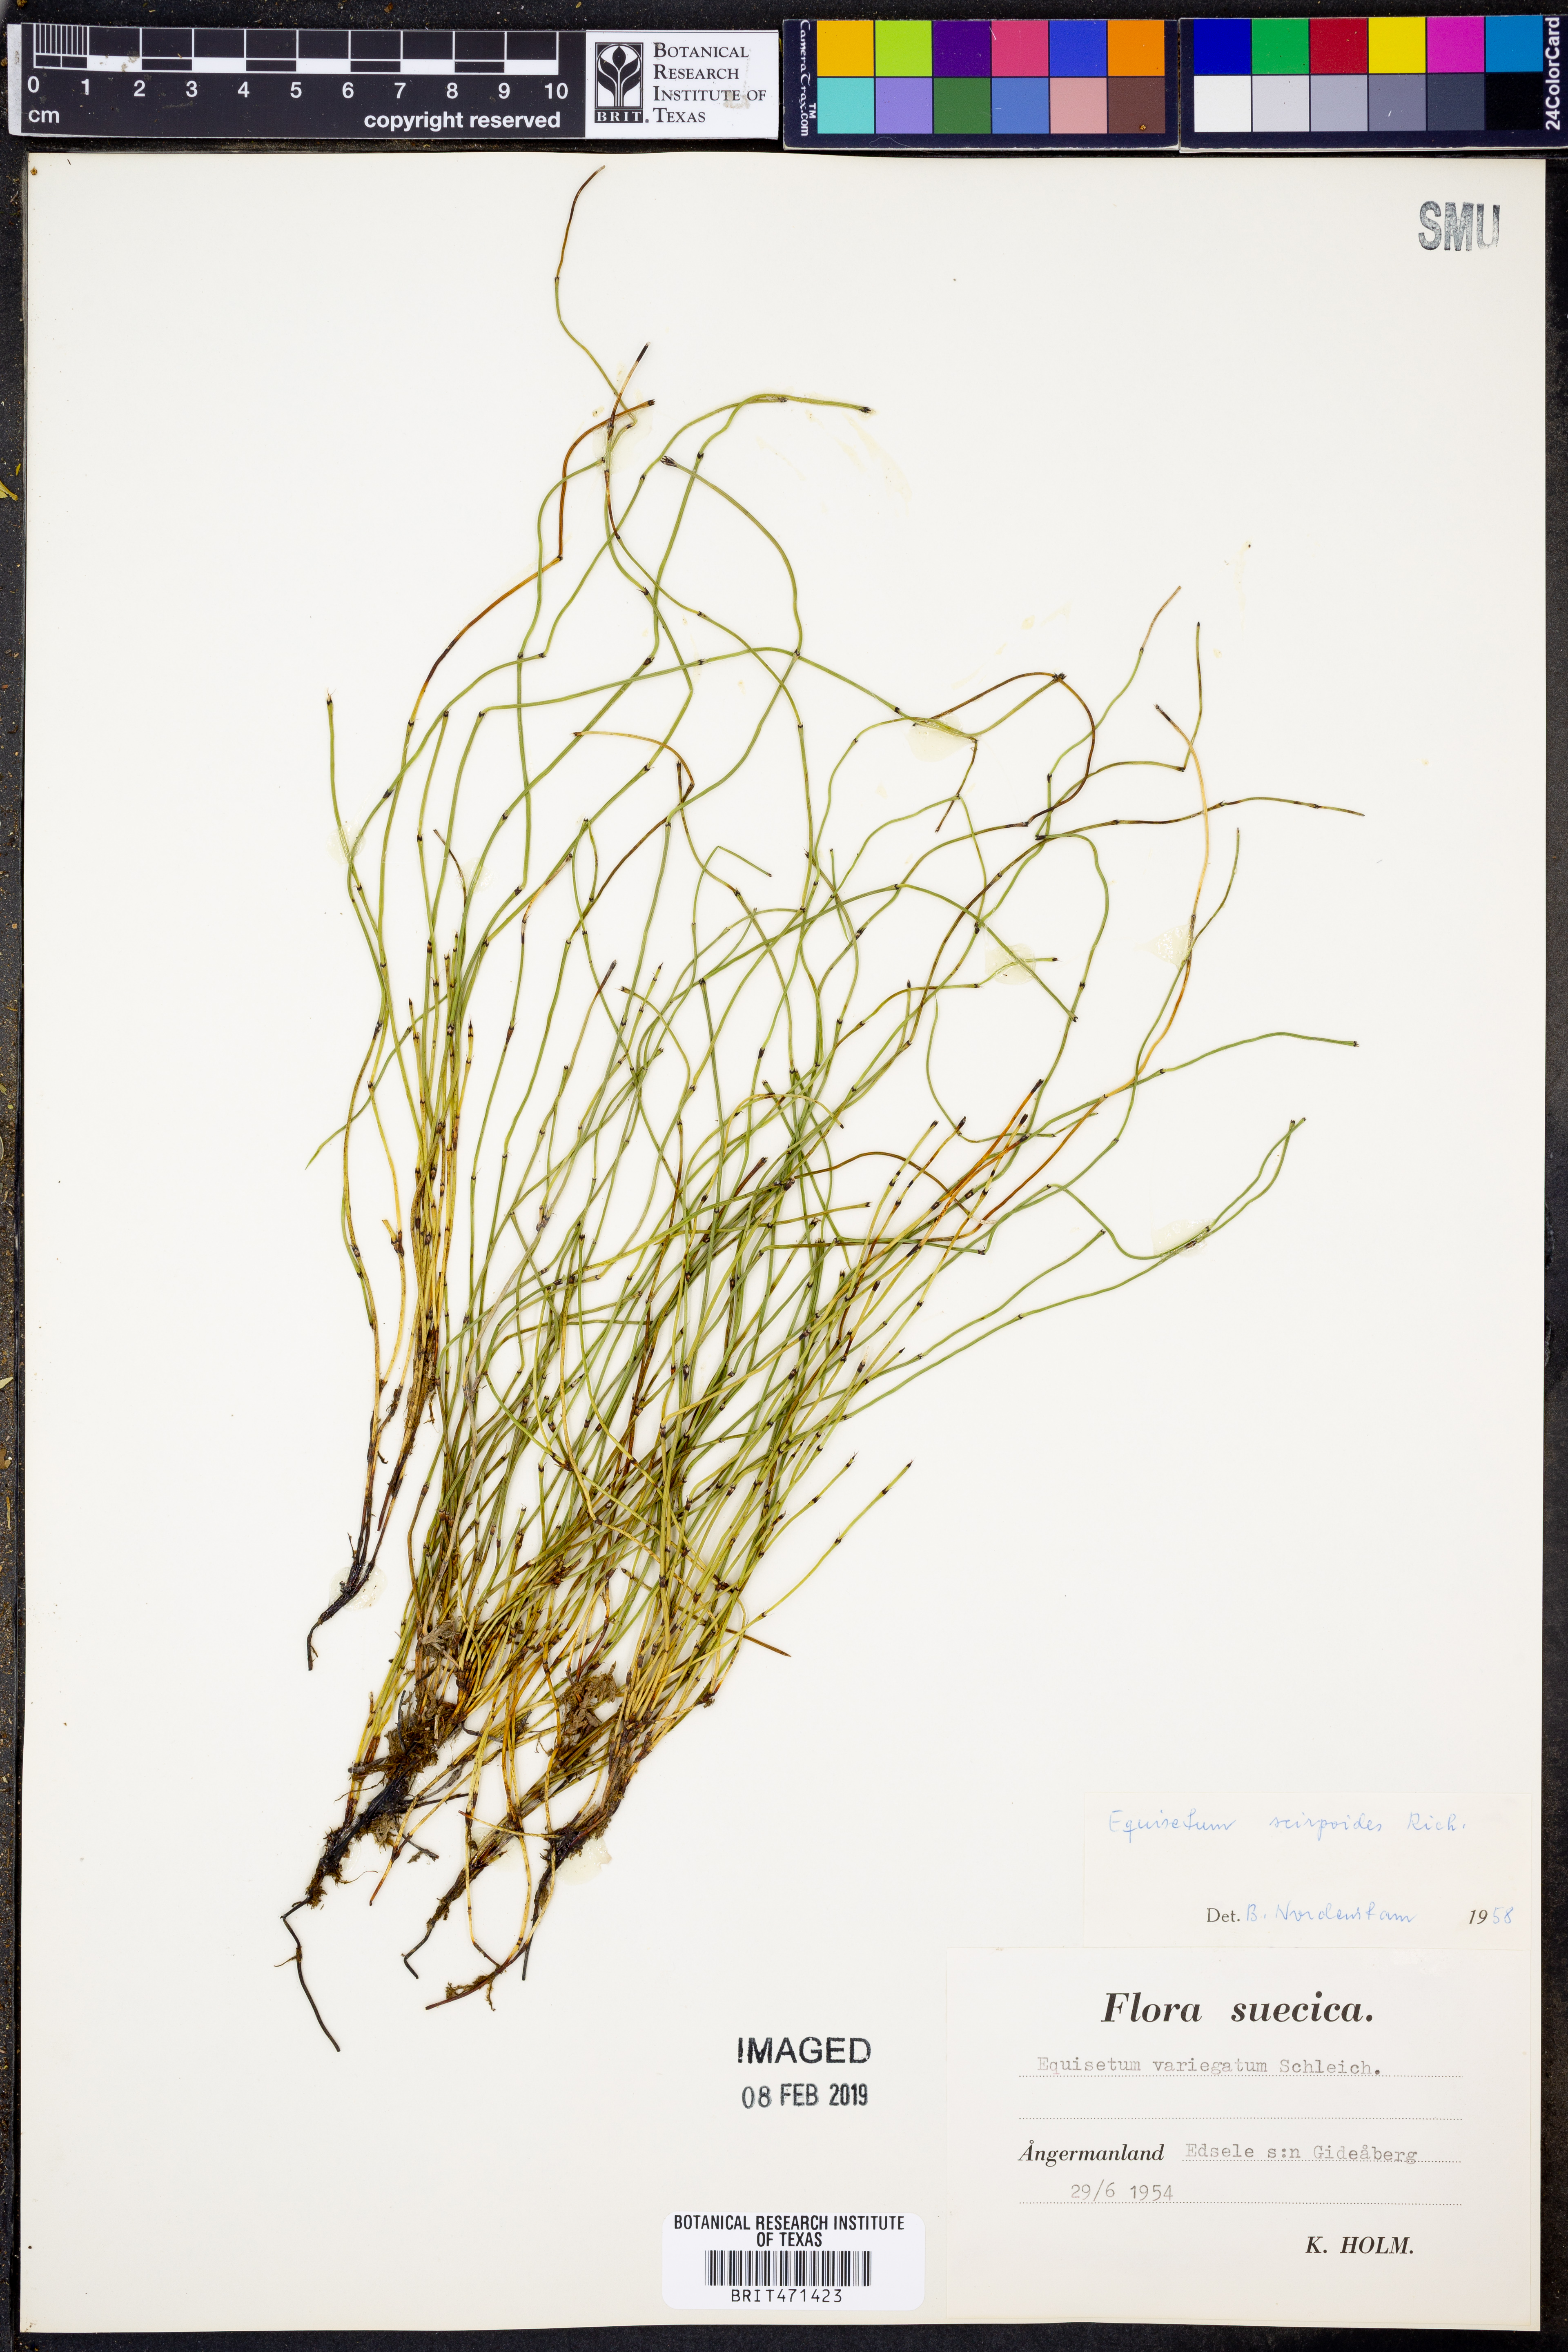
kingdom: Plantae
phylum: Tracheophyta
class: Polypodiopsida
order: Equisetales
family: Equisetaceae
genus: Equisetum
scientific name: Equisetum scirpoides
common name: Delicate horsetail
